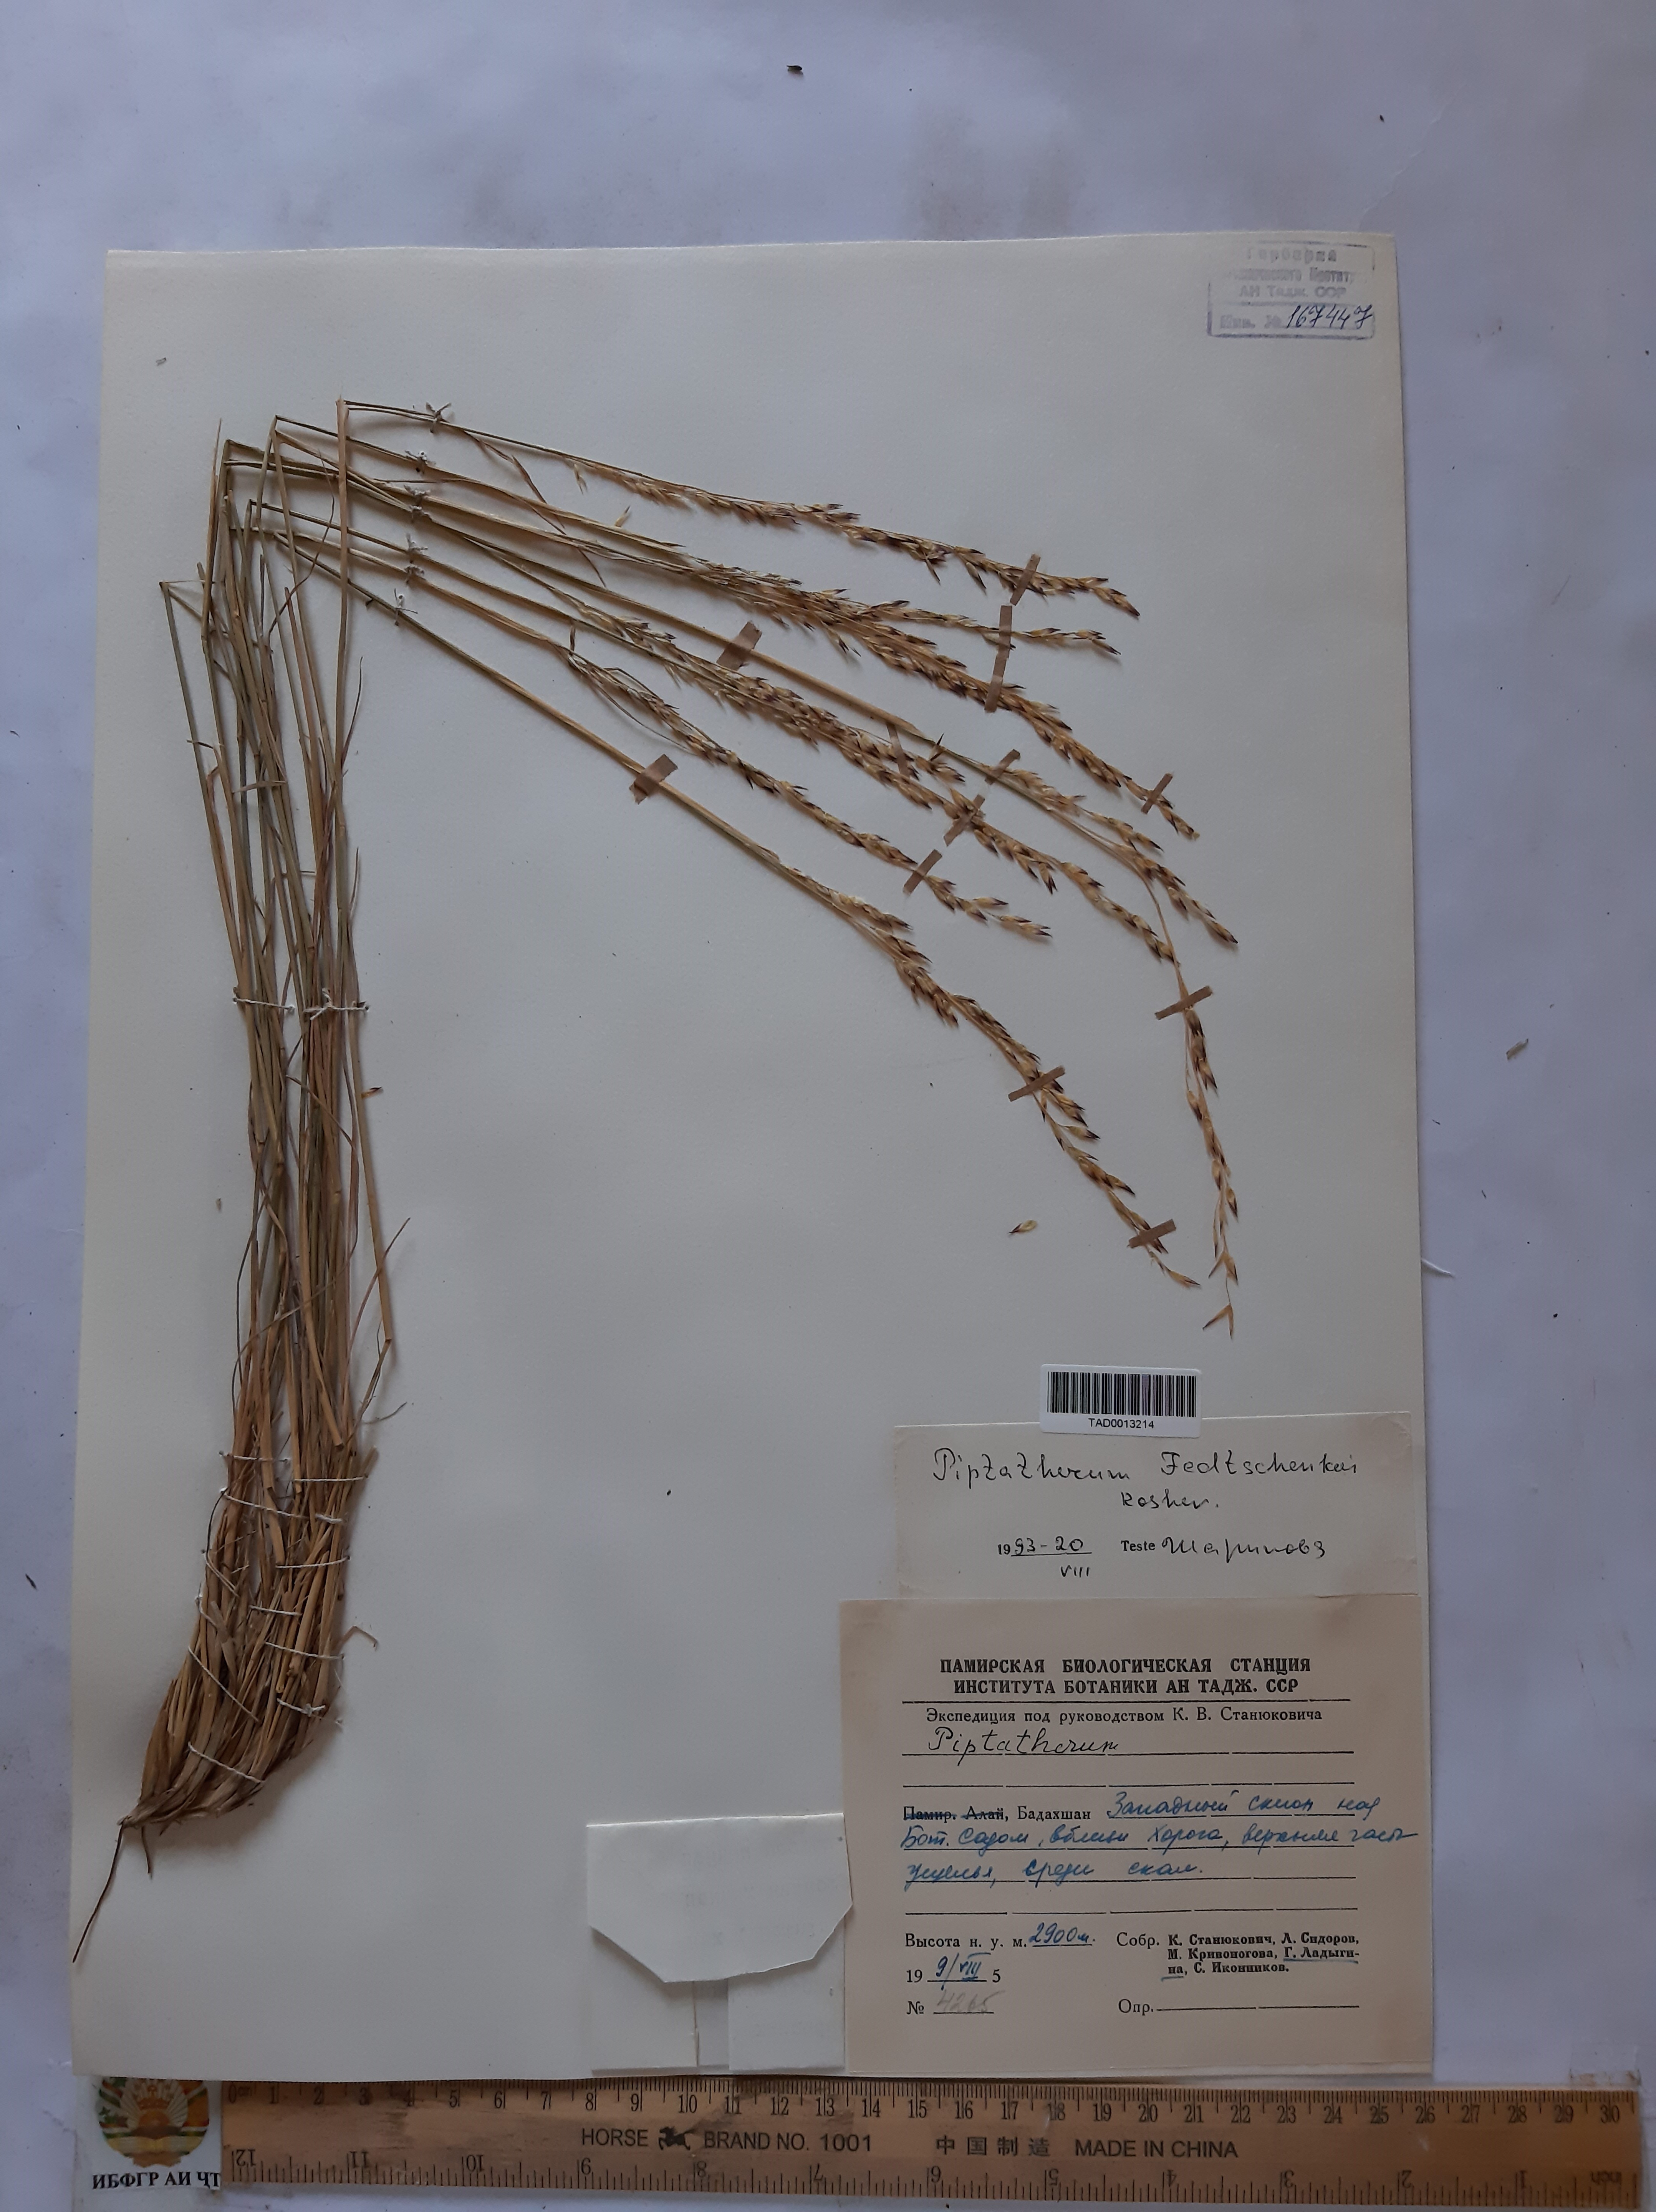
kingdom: Plantae
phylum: Tracheophyta
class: Liliopsida
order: Poales
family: Poaceae
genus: Piptatherum
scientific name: Piptatherum sogdianum
